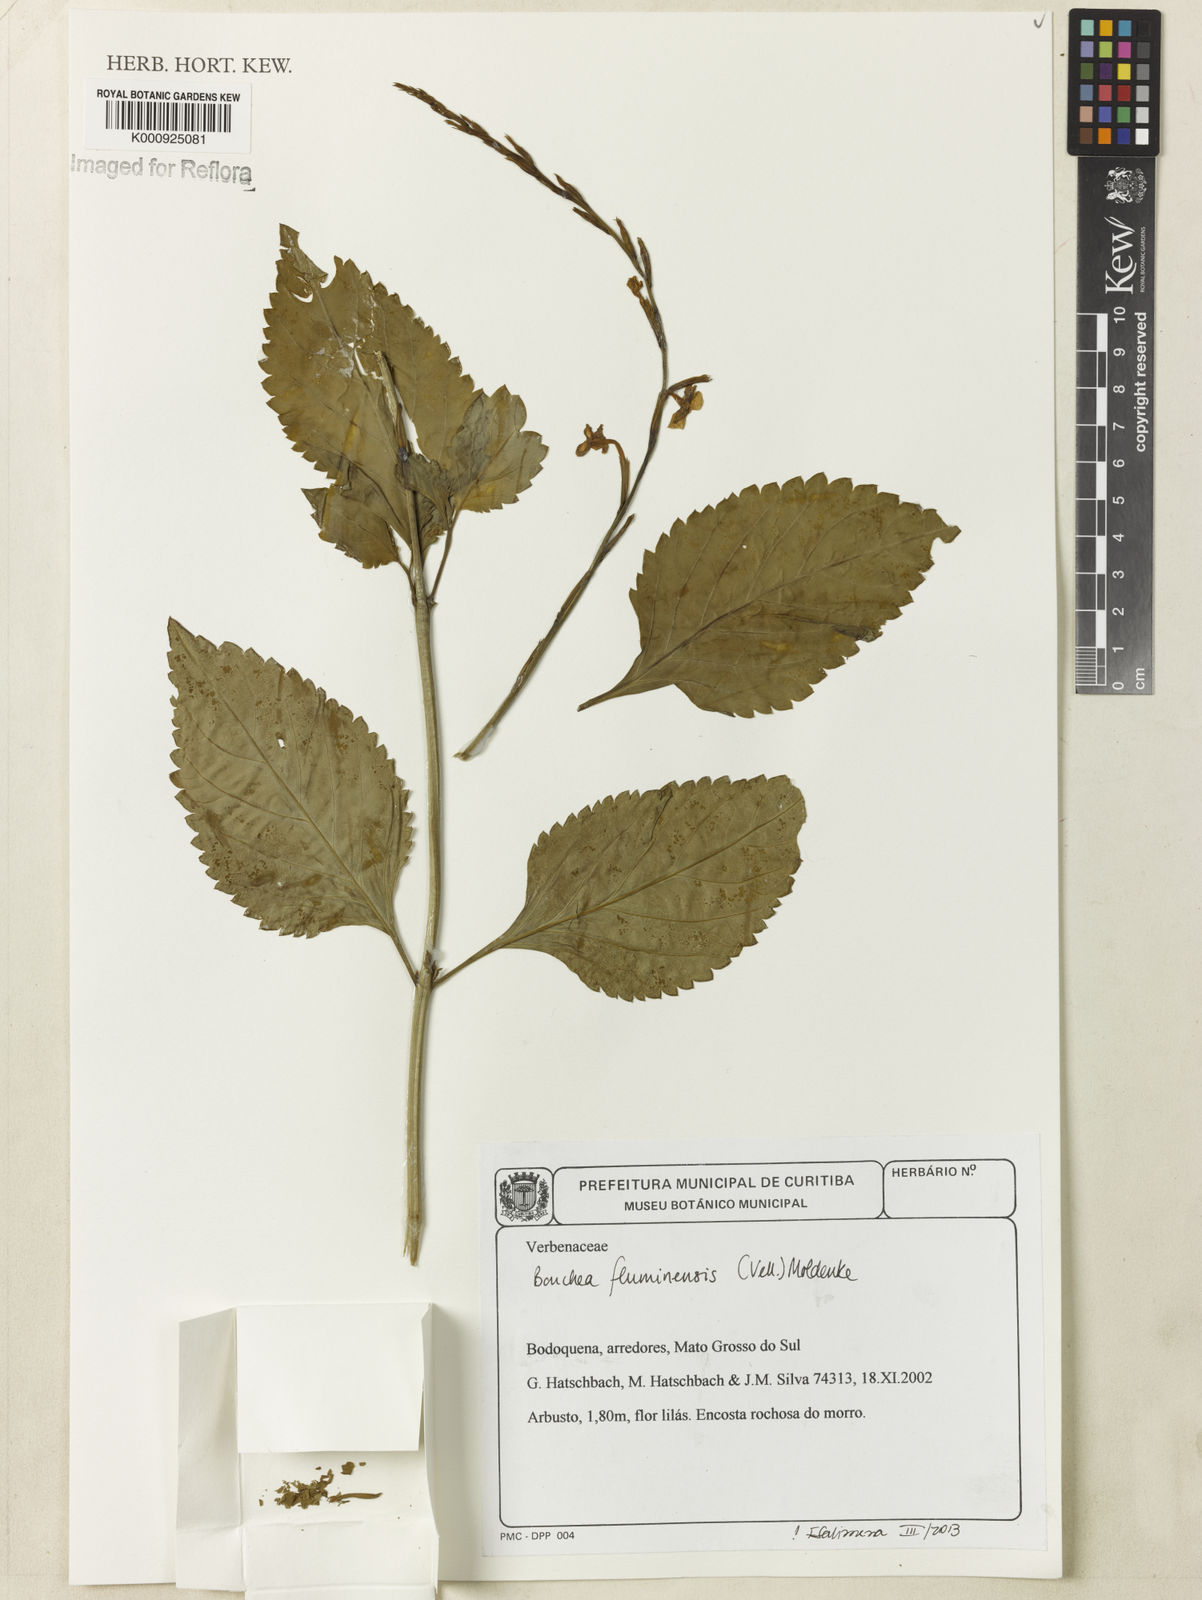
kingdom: Plantae
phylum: Tracheophyta
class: Magnoliopsida
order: Lamiales
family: Verbenaceae
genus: Bouchea
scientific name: Bouchea pseudogervao
